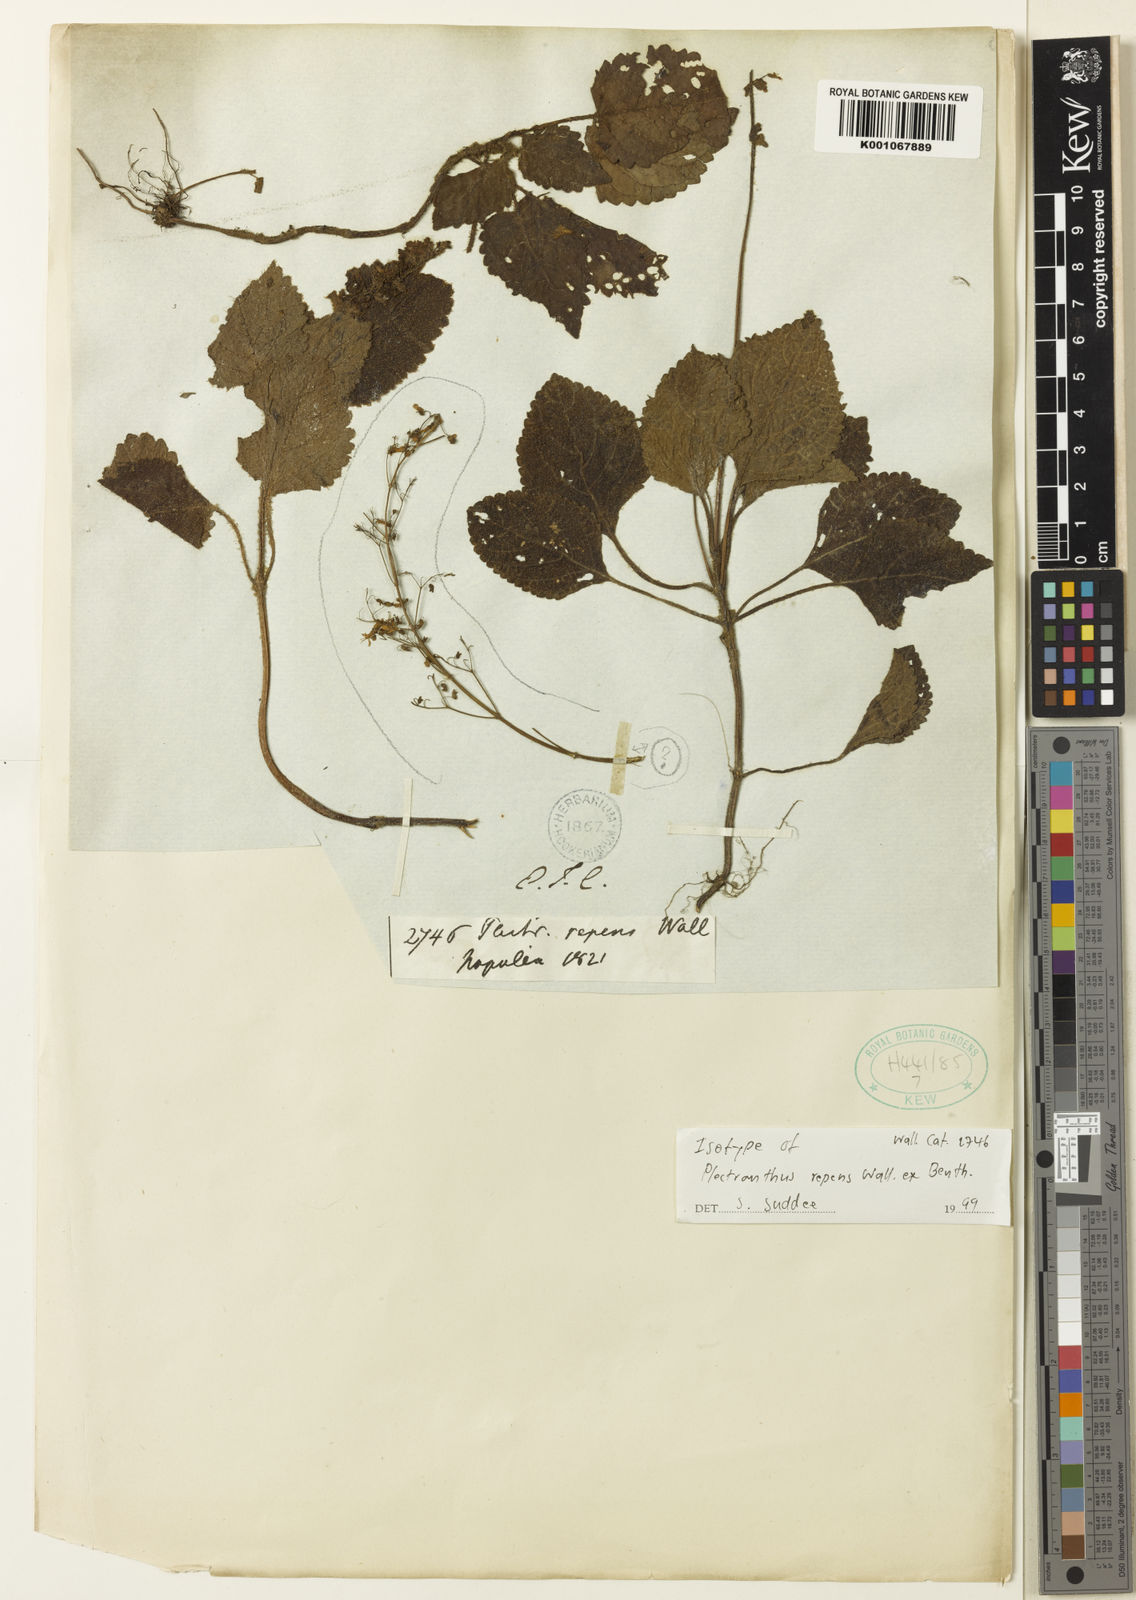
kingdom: Plantae
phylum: Tracheophyta
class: Magnoliopsida
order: Lamiales
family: Lamiaceae
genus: Isodon
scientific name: Isodon repens
